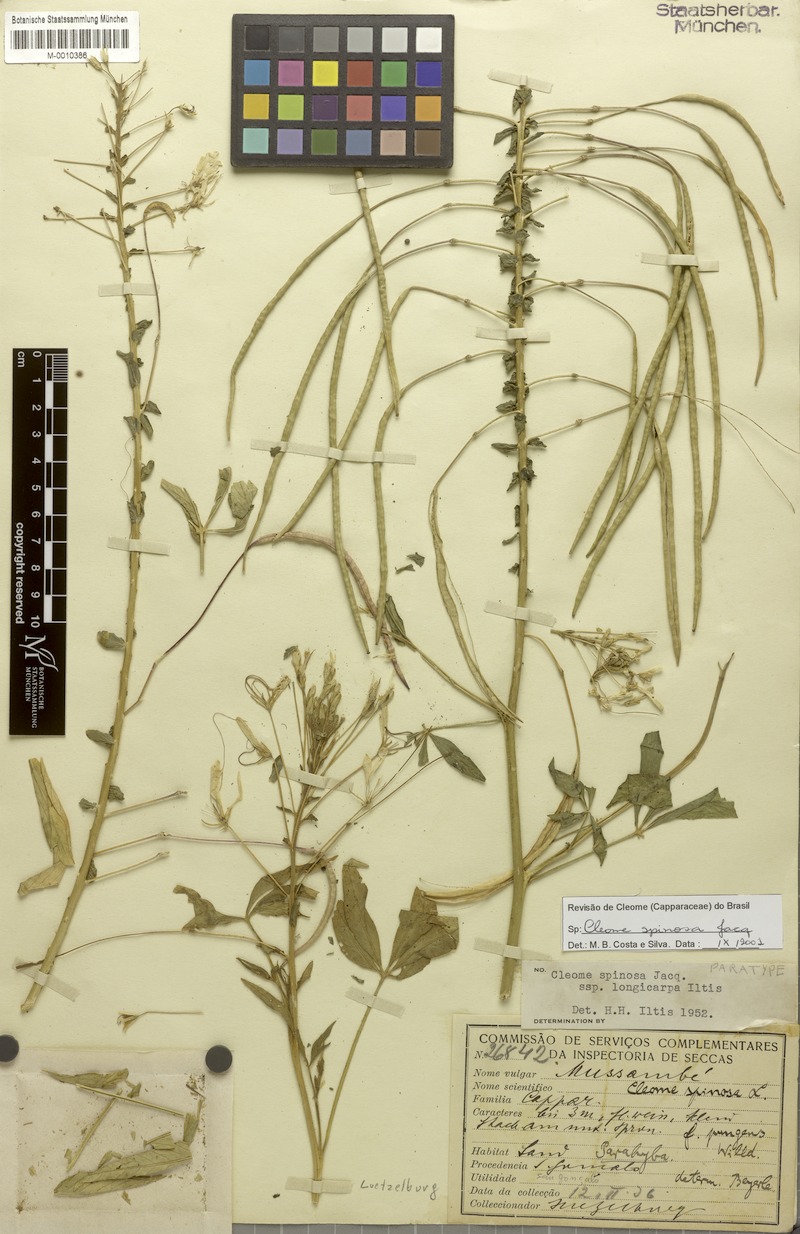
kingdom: Plantae
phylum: Tracheophyta
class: Magnoliopsida
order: Brassicales
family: Cleomaceae
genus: Tarenaya
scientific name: Tarenaya spinosa
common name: Spiny spiderflower
